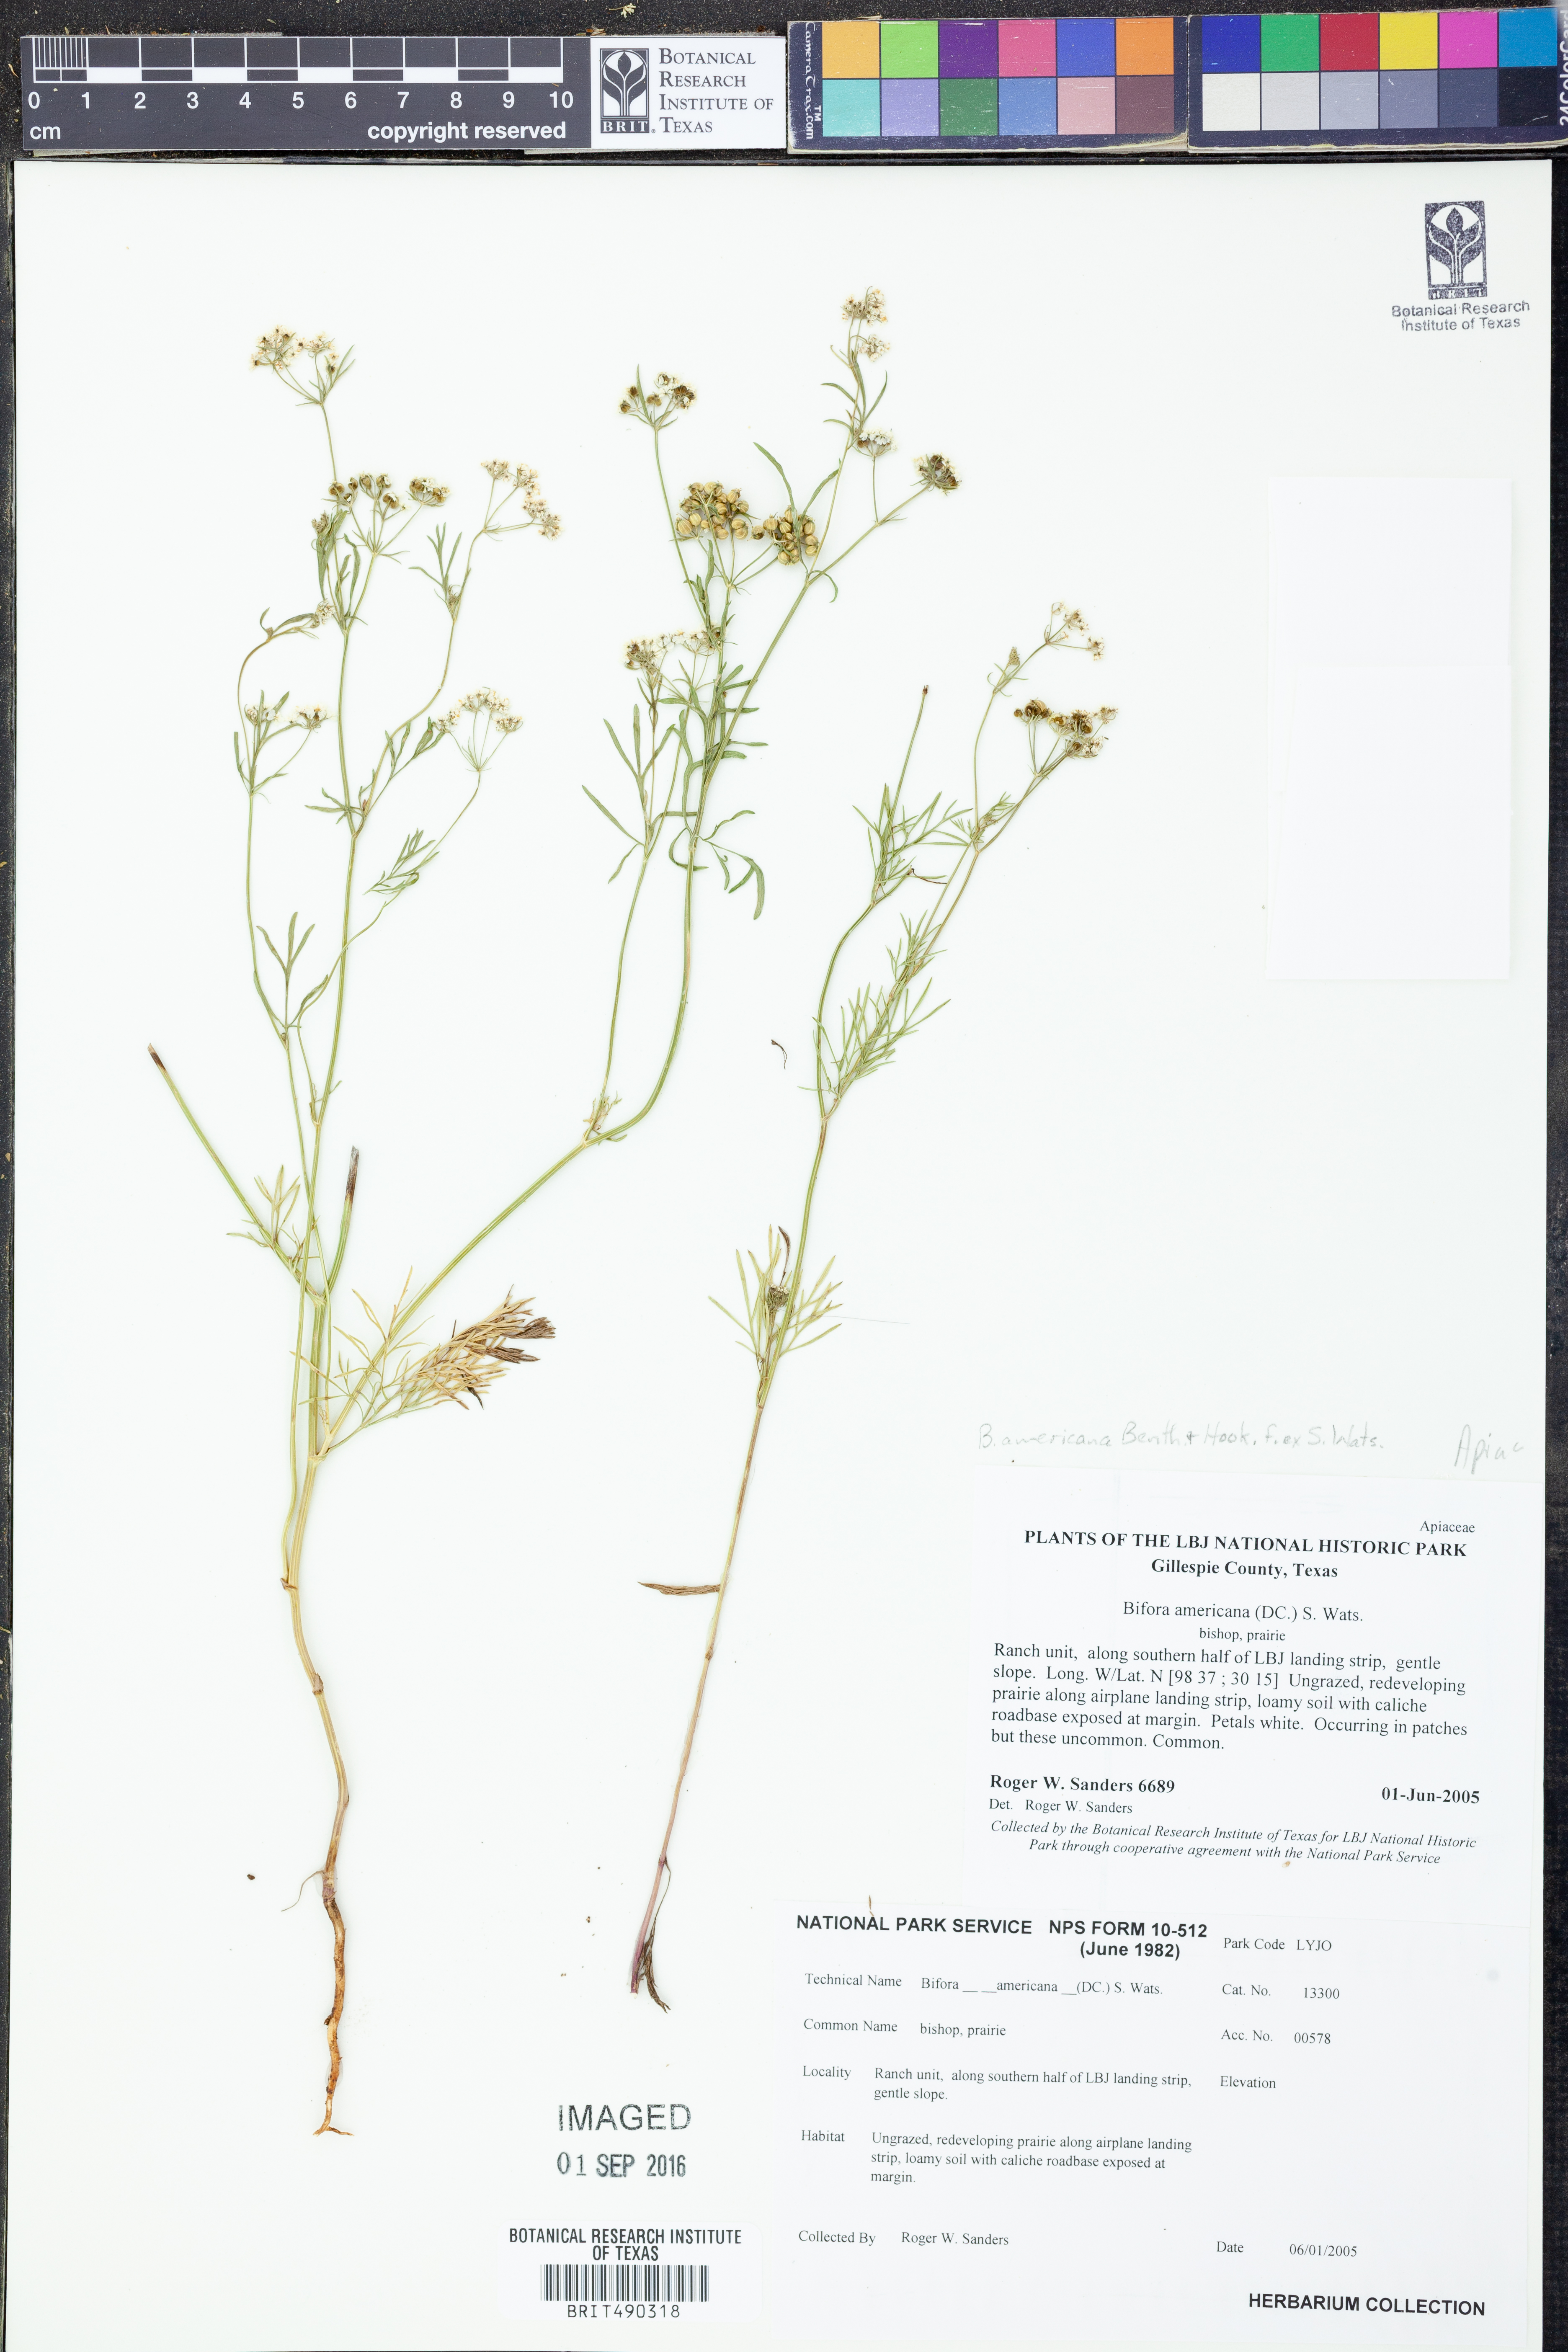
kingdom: Plantae
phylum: Tracheophyta
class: Magnoliopsida
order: Apiales
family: Apiaceae
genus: Atrema
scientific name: Atrema americanum
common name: Prairie-bishop
